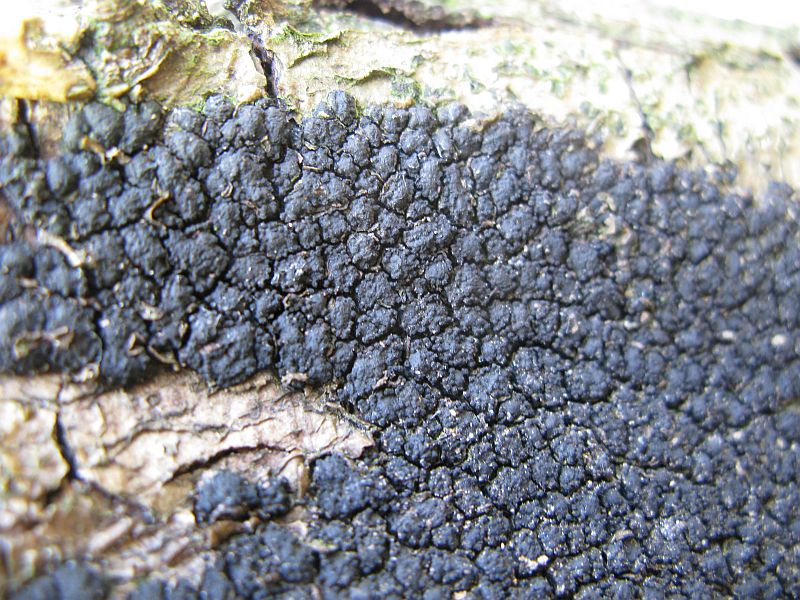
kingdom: Fungi
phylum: Ascomycota
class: Sordariomycetes
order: Xylariales
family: Melogrammataceae
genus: Melogramma
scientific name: Melogramma spiniferum
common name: bøgefod-kulhals
